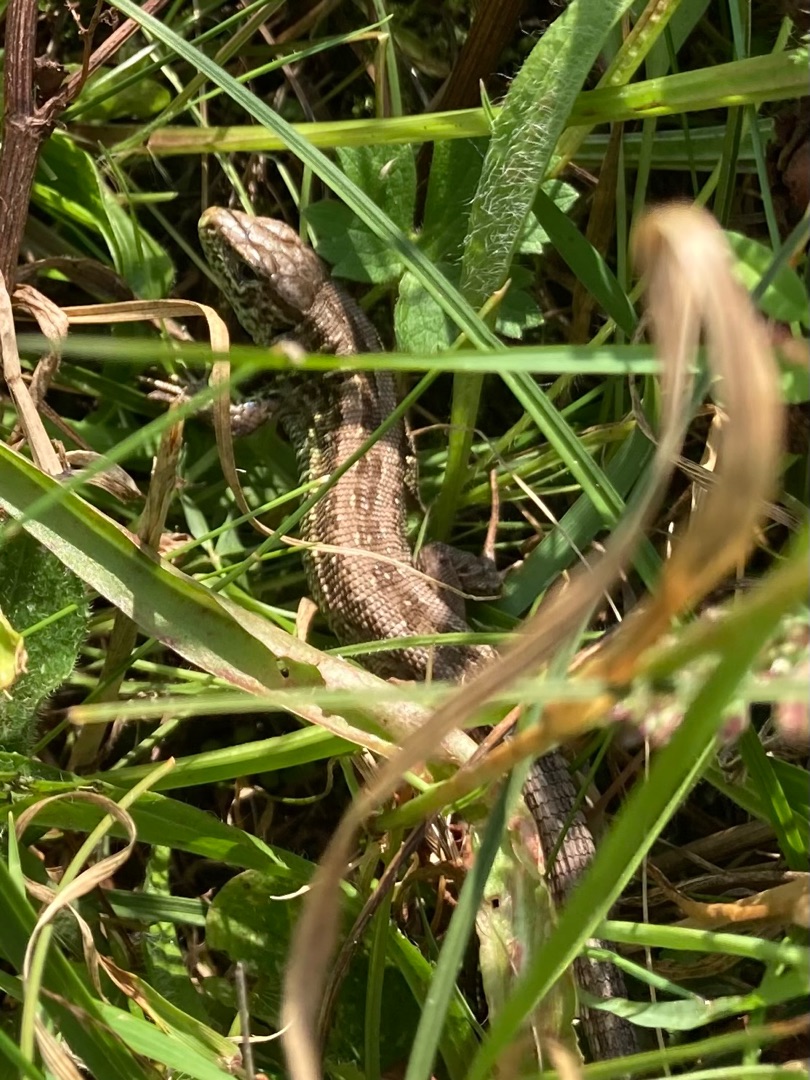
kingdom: Animalia
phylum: Chordata
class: Squamata
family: Lacertidae
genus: Lacerta
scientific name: Lacerta agilis
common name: Markfirben
